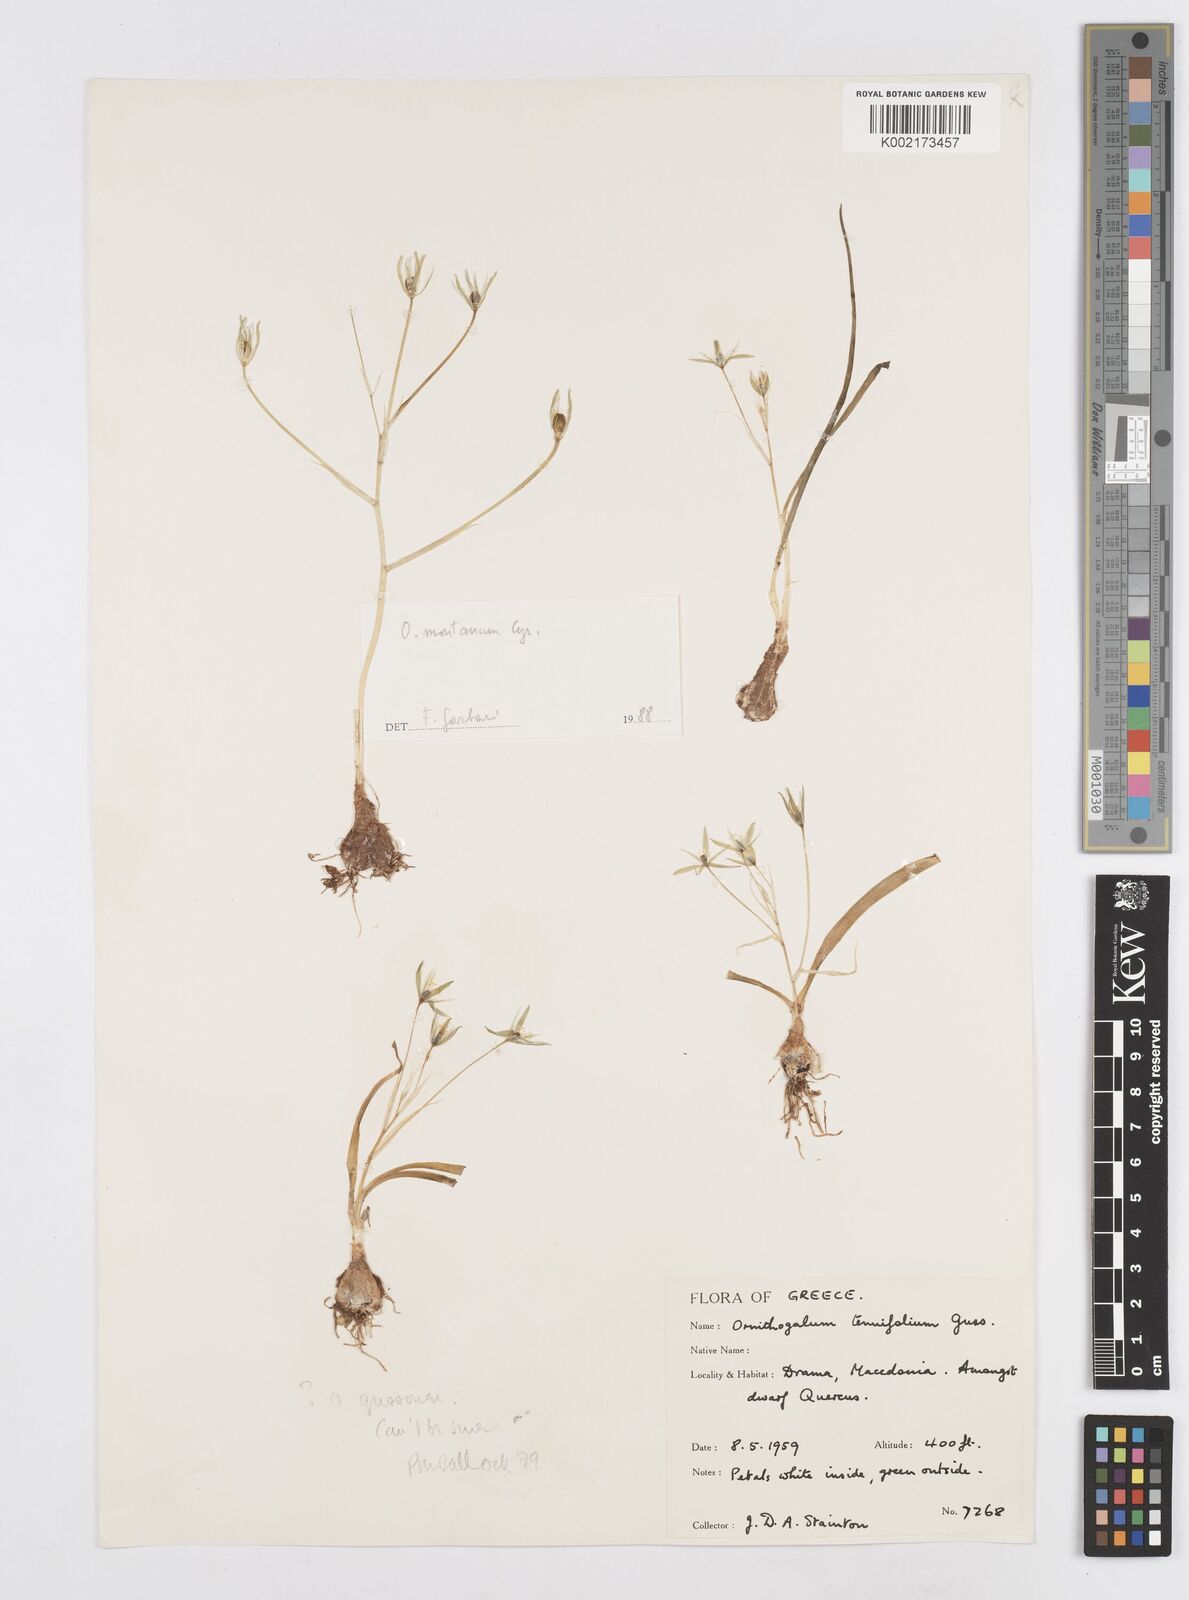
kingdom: Plantae
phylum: Tracheophyta
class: Liliopsida
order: Asparagales
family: Asparagaceae
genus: Ornithogalum
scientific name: Ornithogalum oligophyllum
